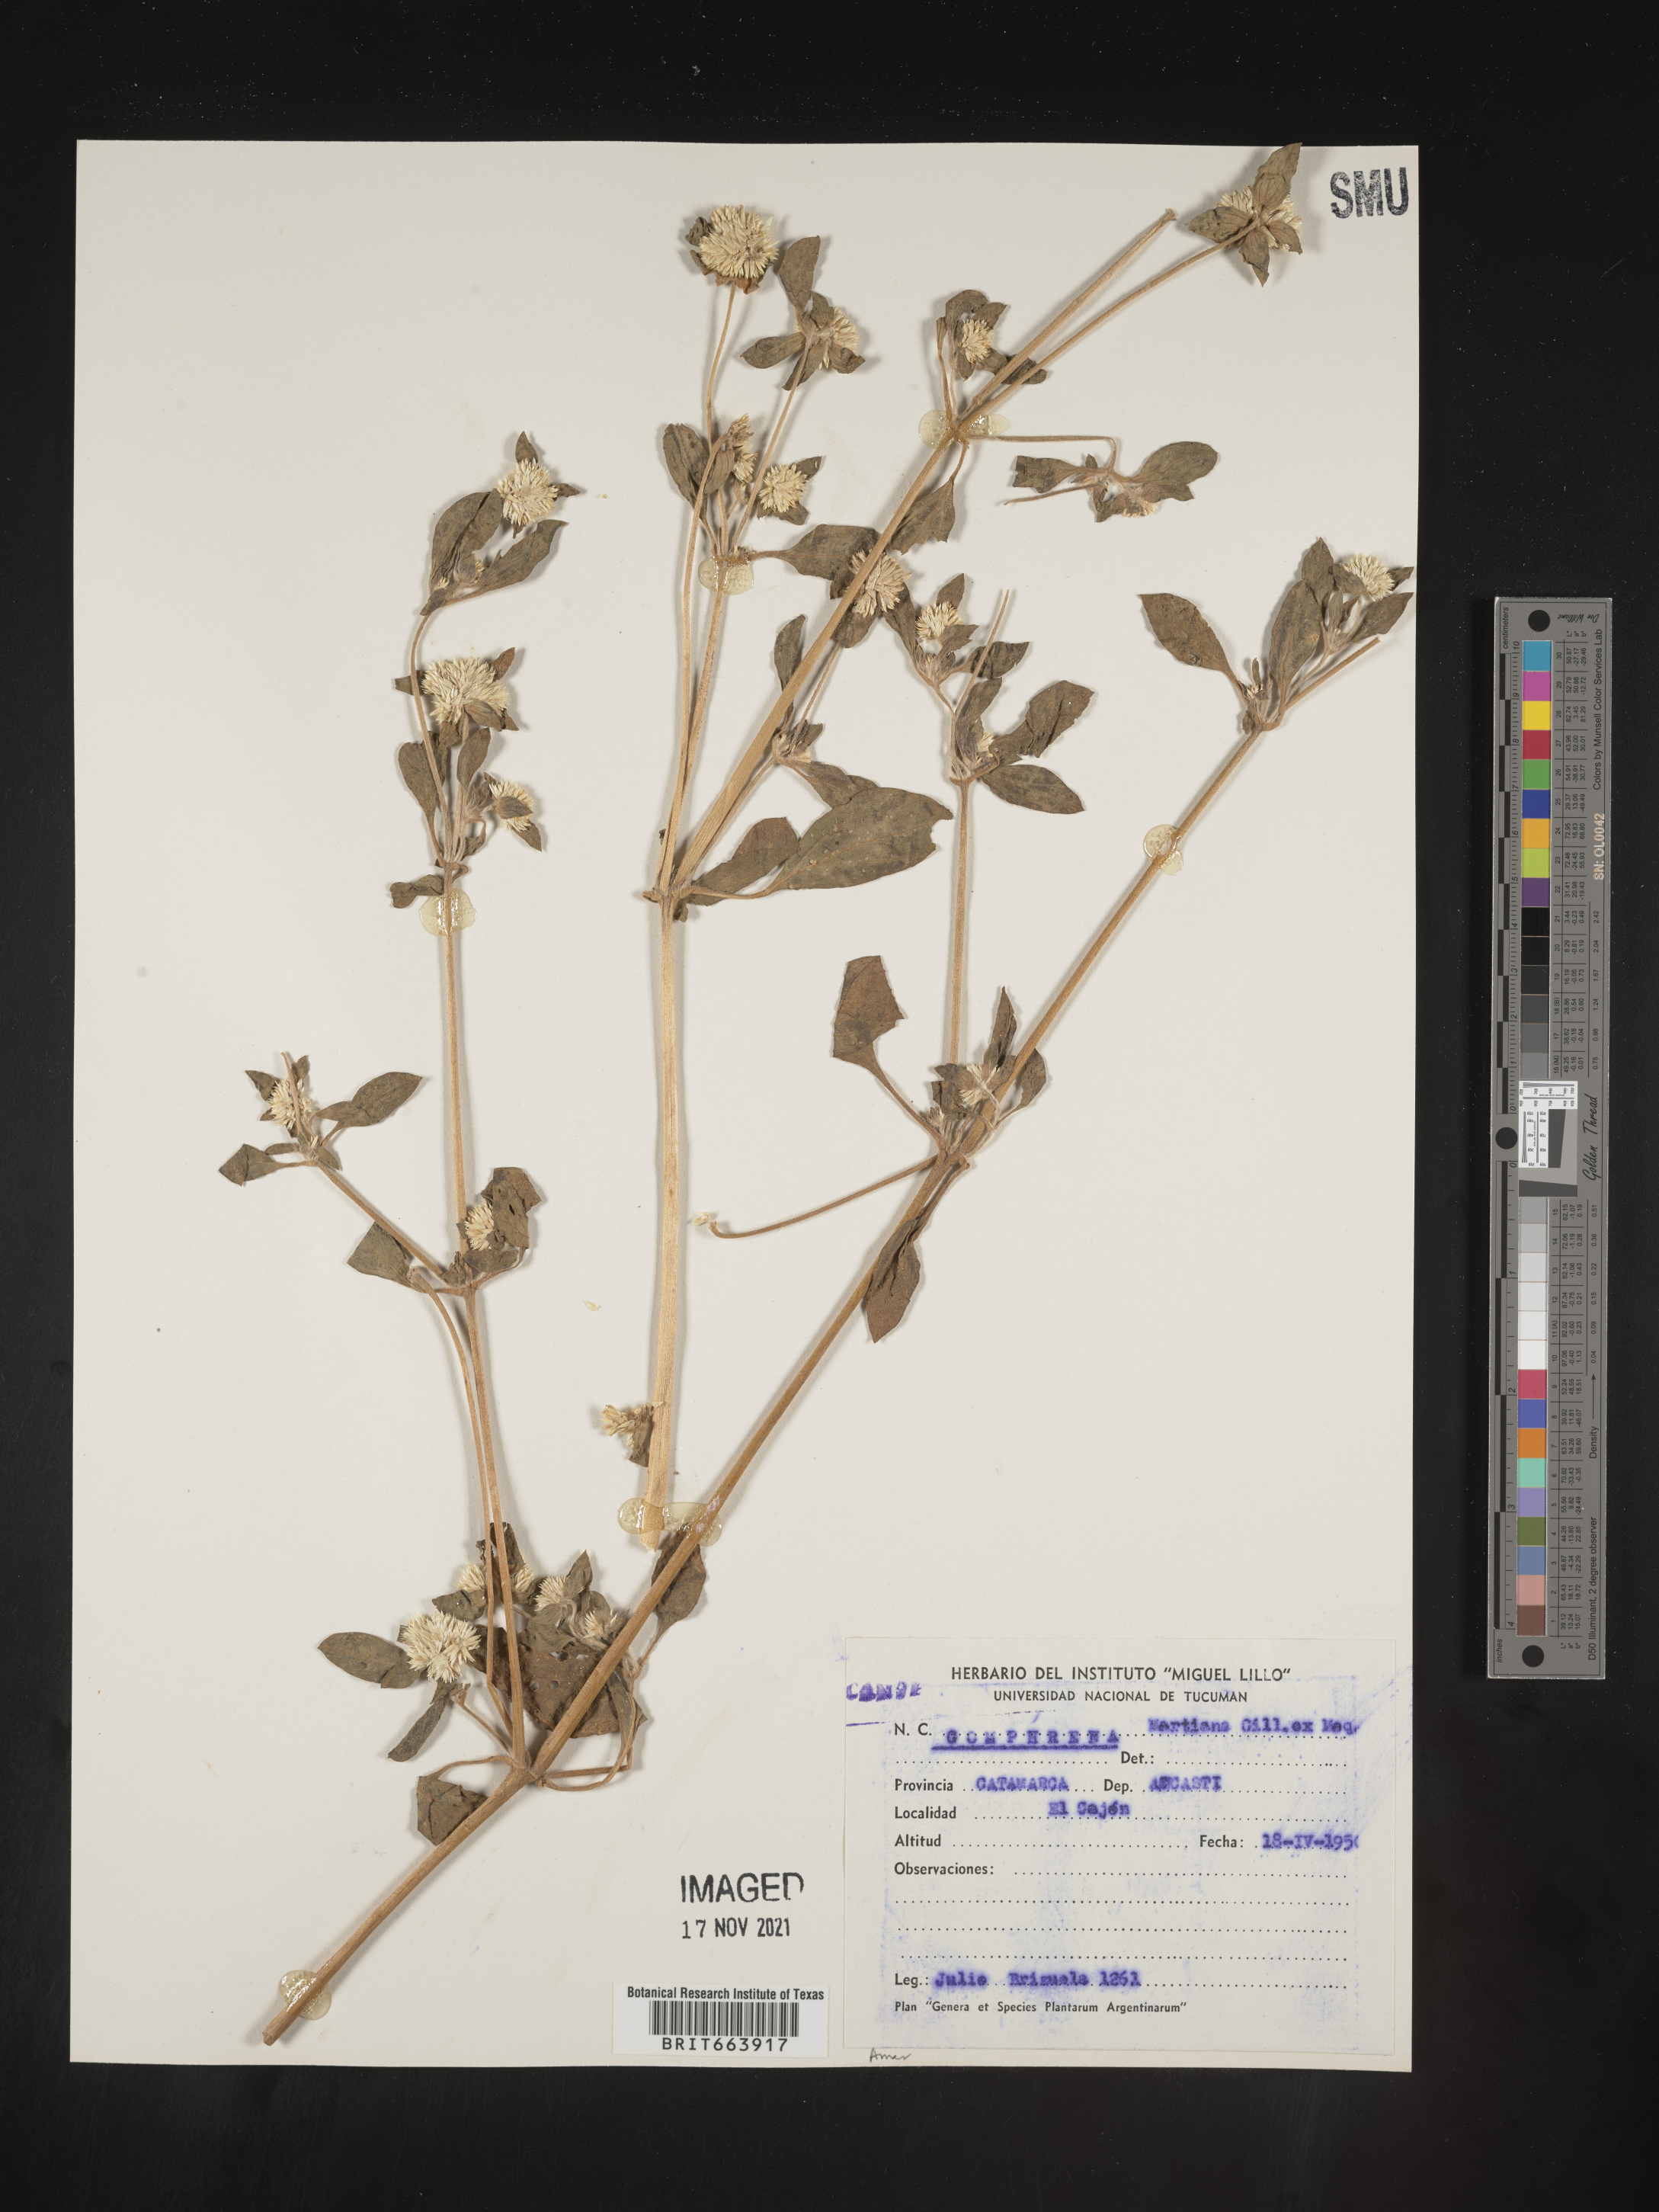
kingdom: Plantae
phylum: Tracheophyta
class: Magnoliopsida
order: Caryophyllales
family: Amaranthaceae
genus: Gomphrena
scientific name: Gomphrena
